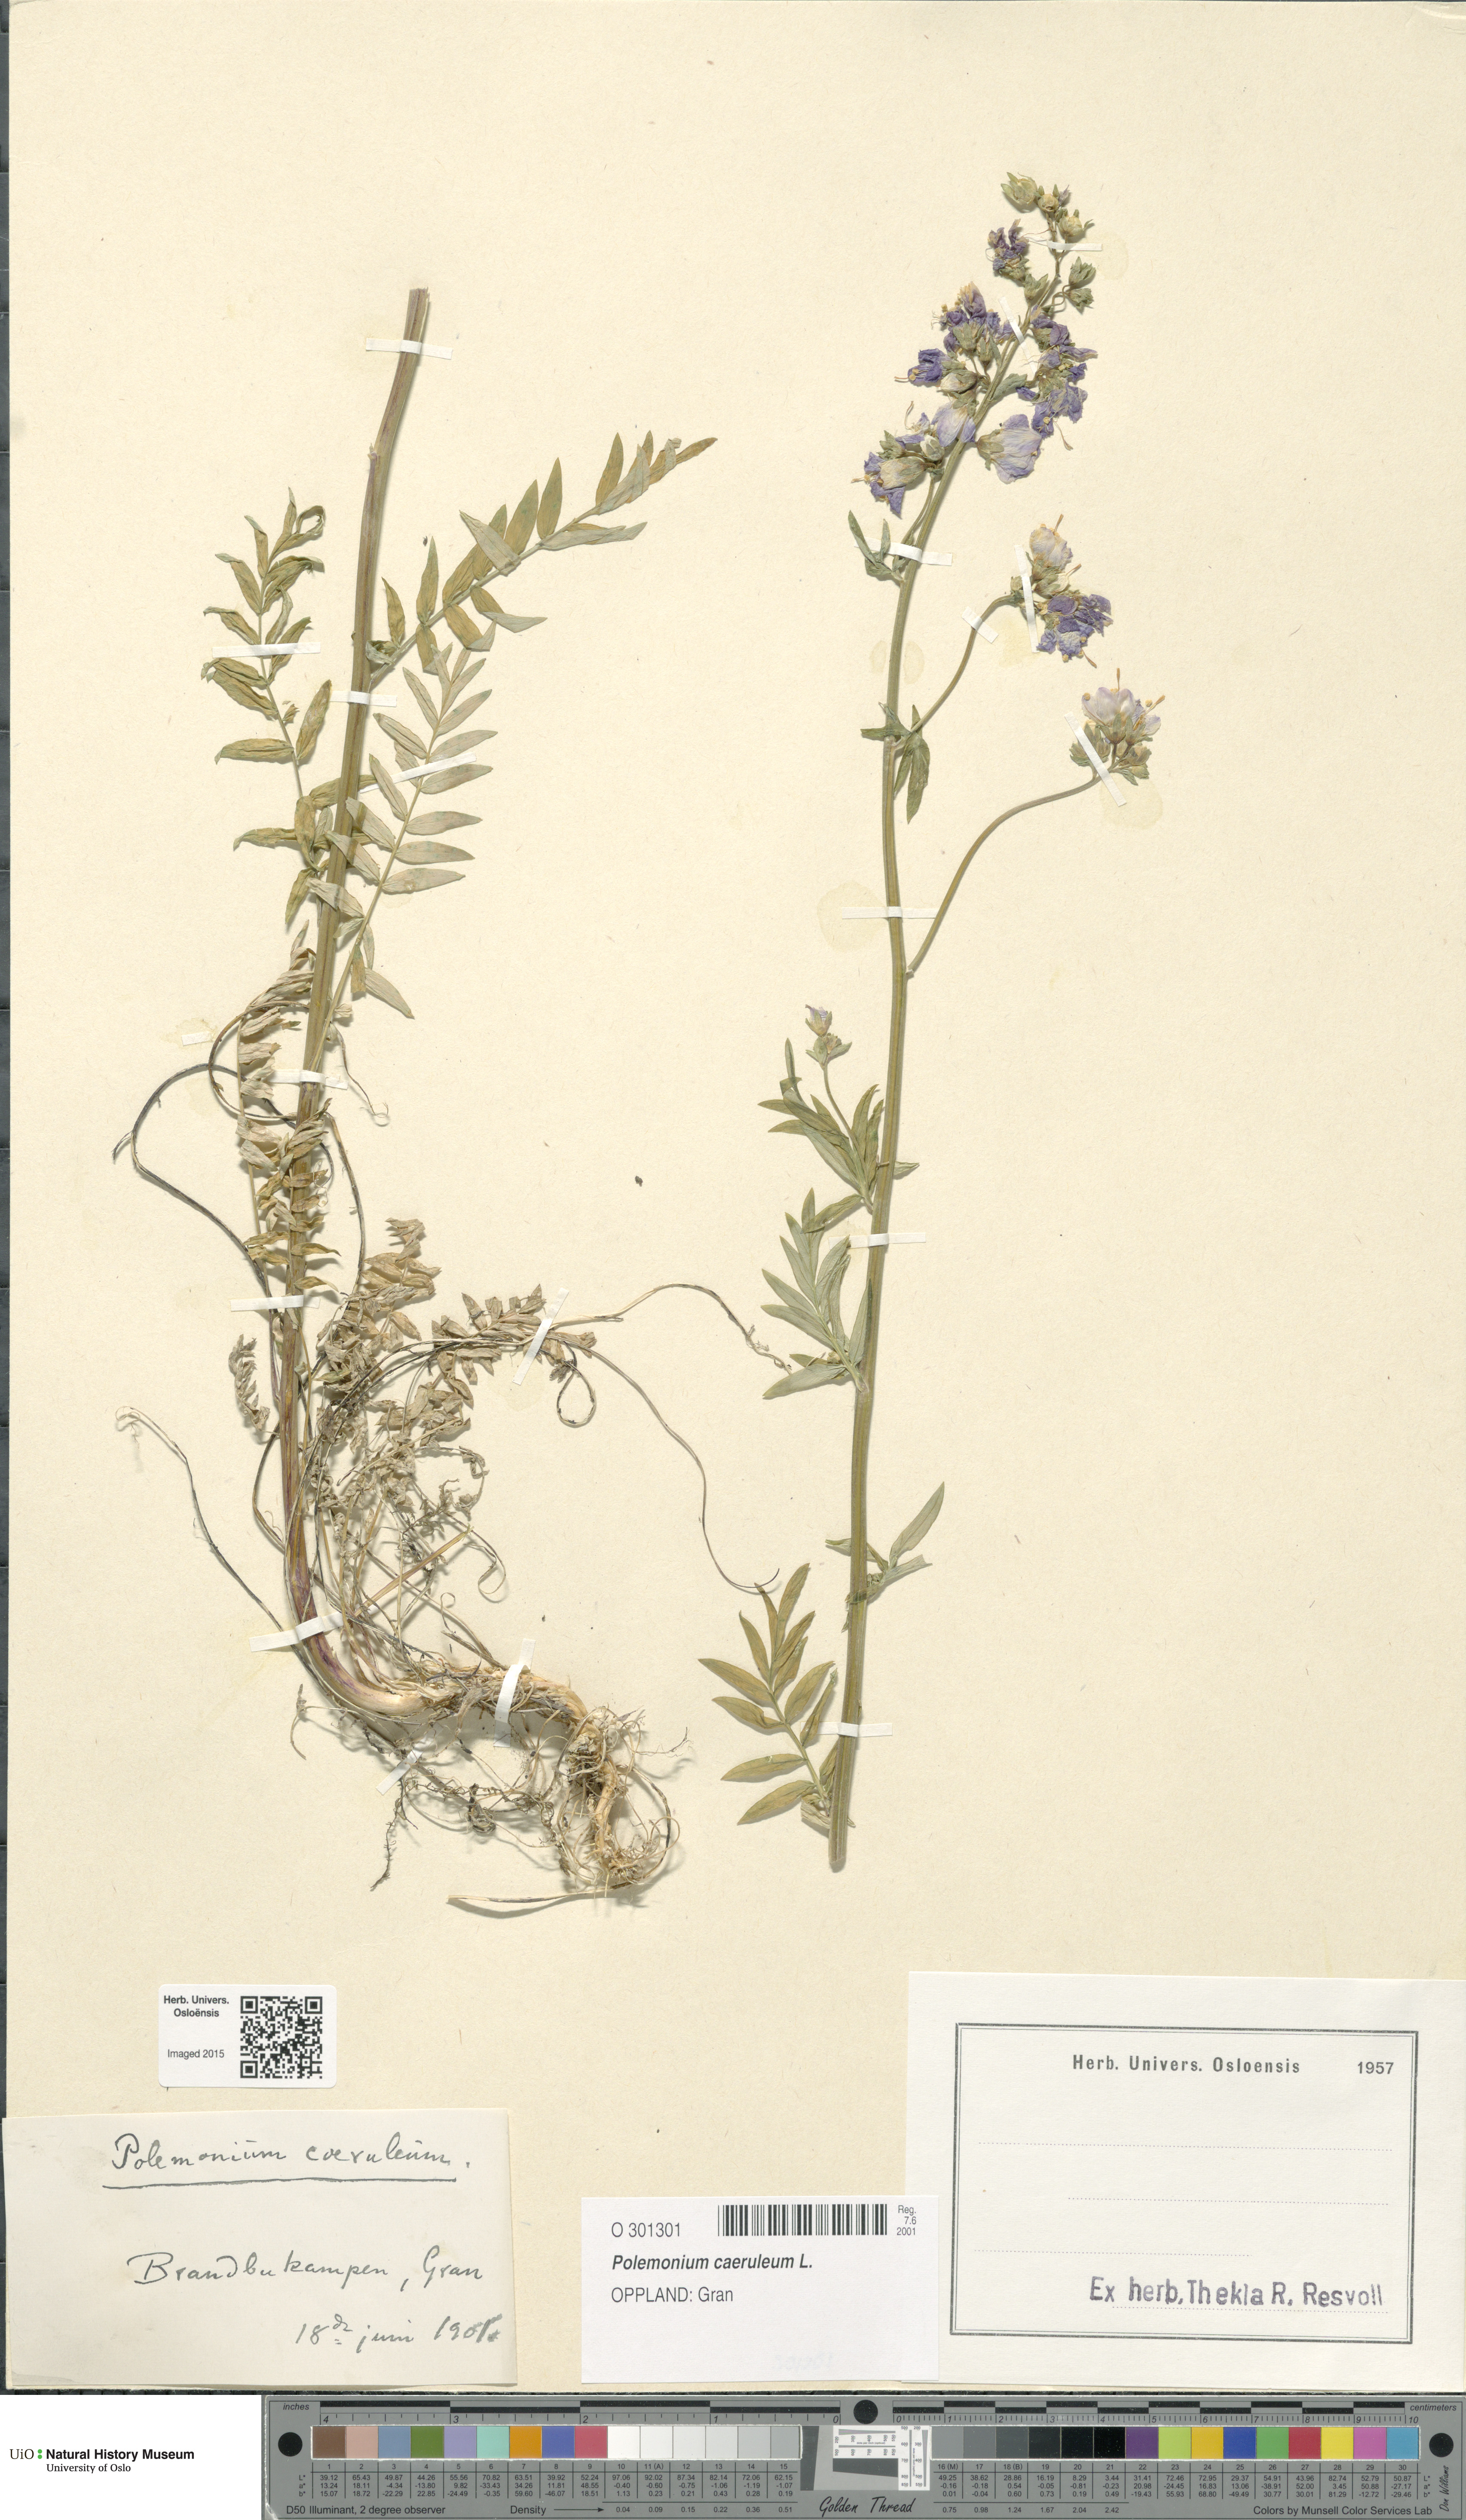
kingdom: Plantae
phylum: Tracheophyta
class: Magnoliopsida
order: Ericales
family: Polemoniaceae
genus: Polemonium
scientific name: Polemonium caeruleum
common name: Jacob's-ladder
